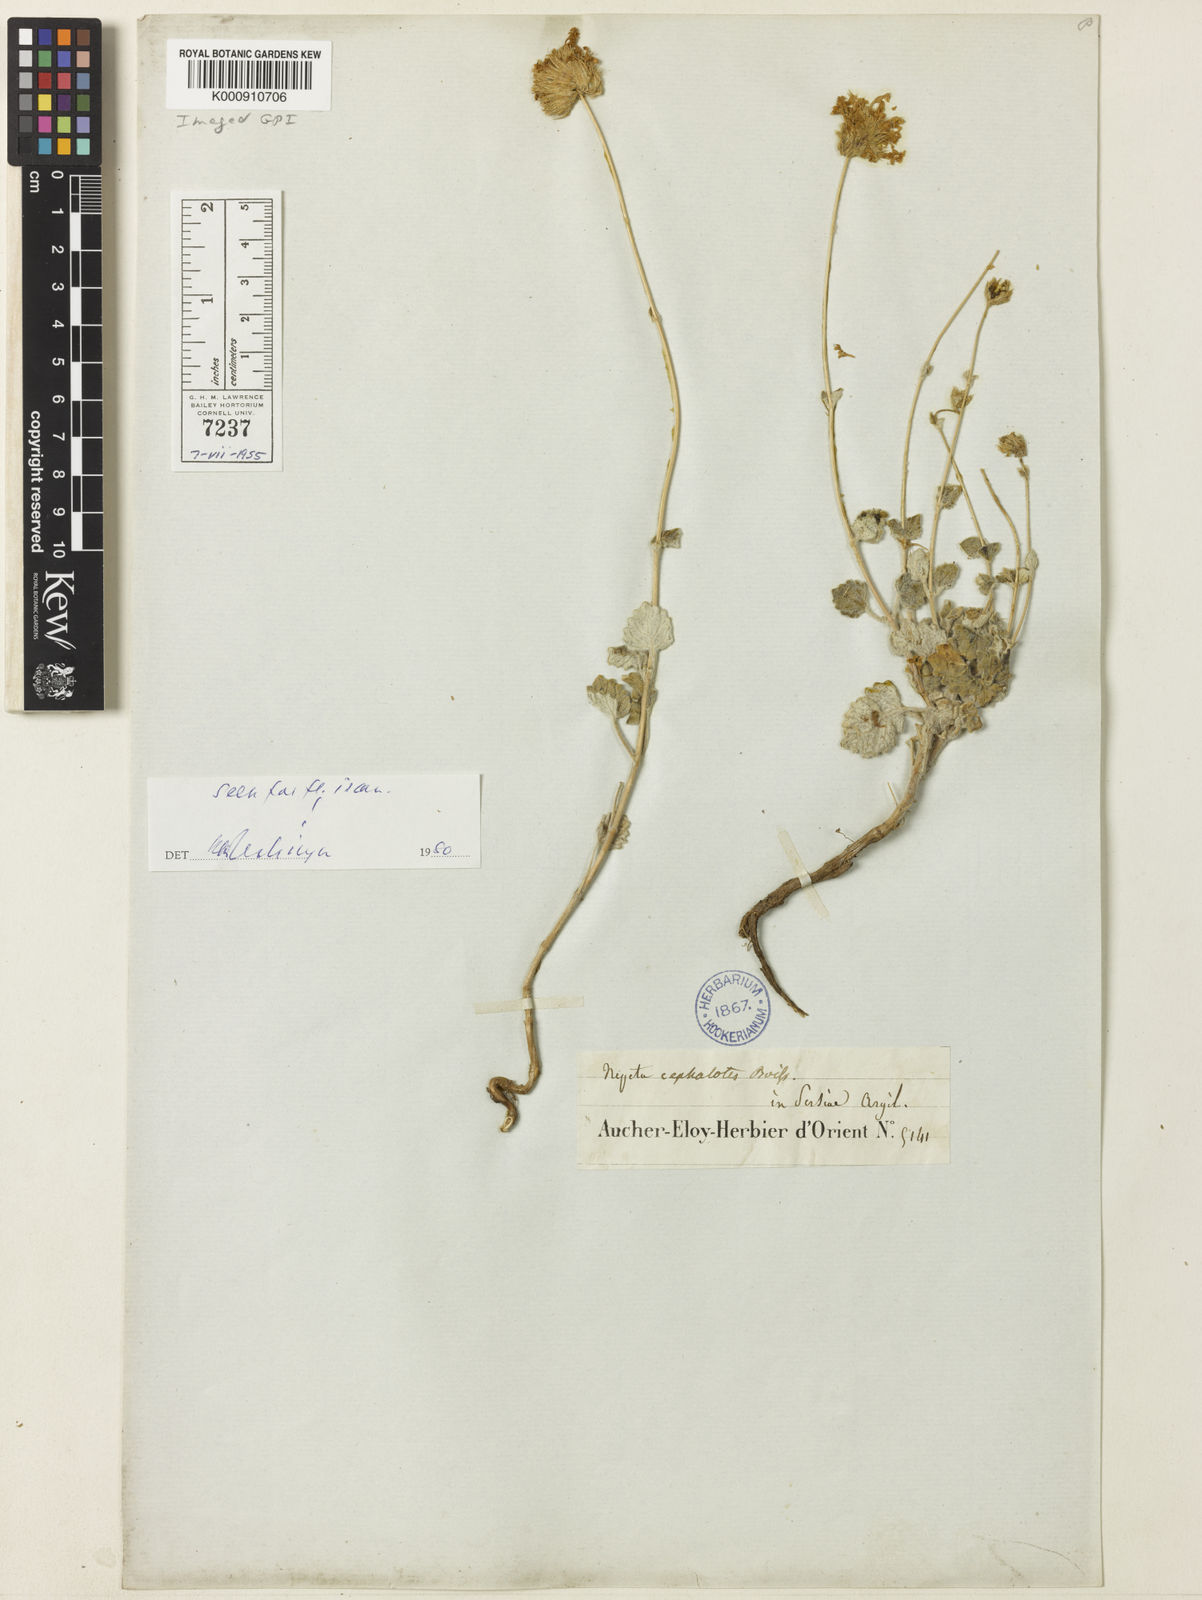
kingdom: Plantae
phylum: Tracheophyta
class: Magnoliopsida
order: Lamiales
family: Lamiaceae
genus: Nepeta
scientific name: Nepeta cephalotes
